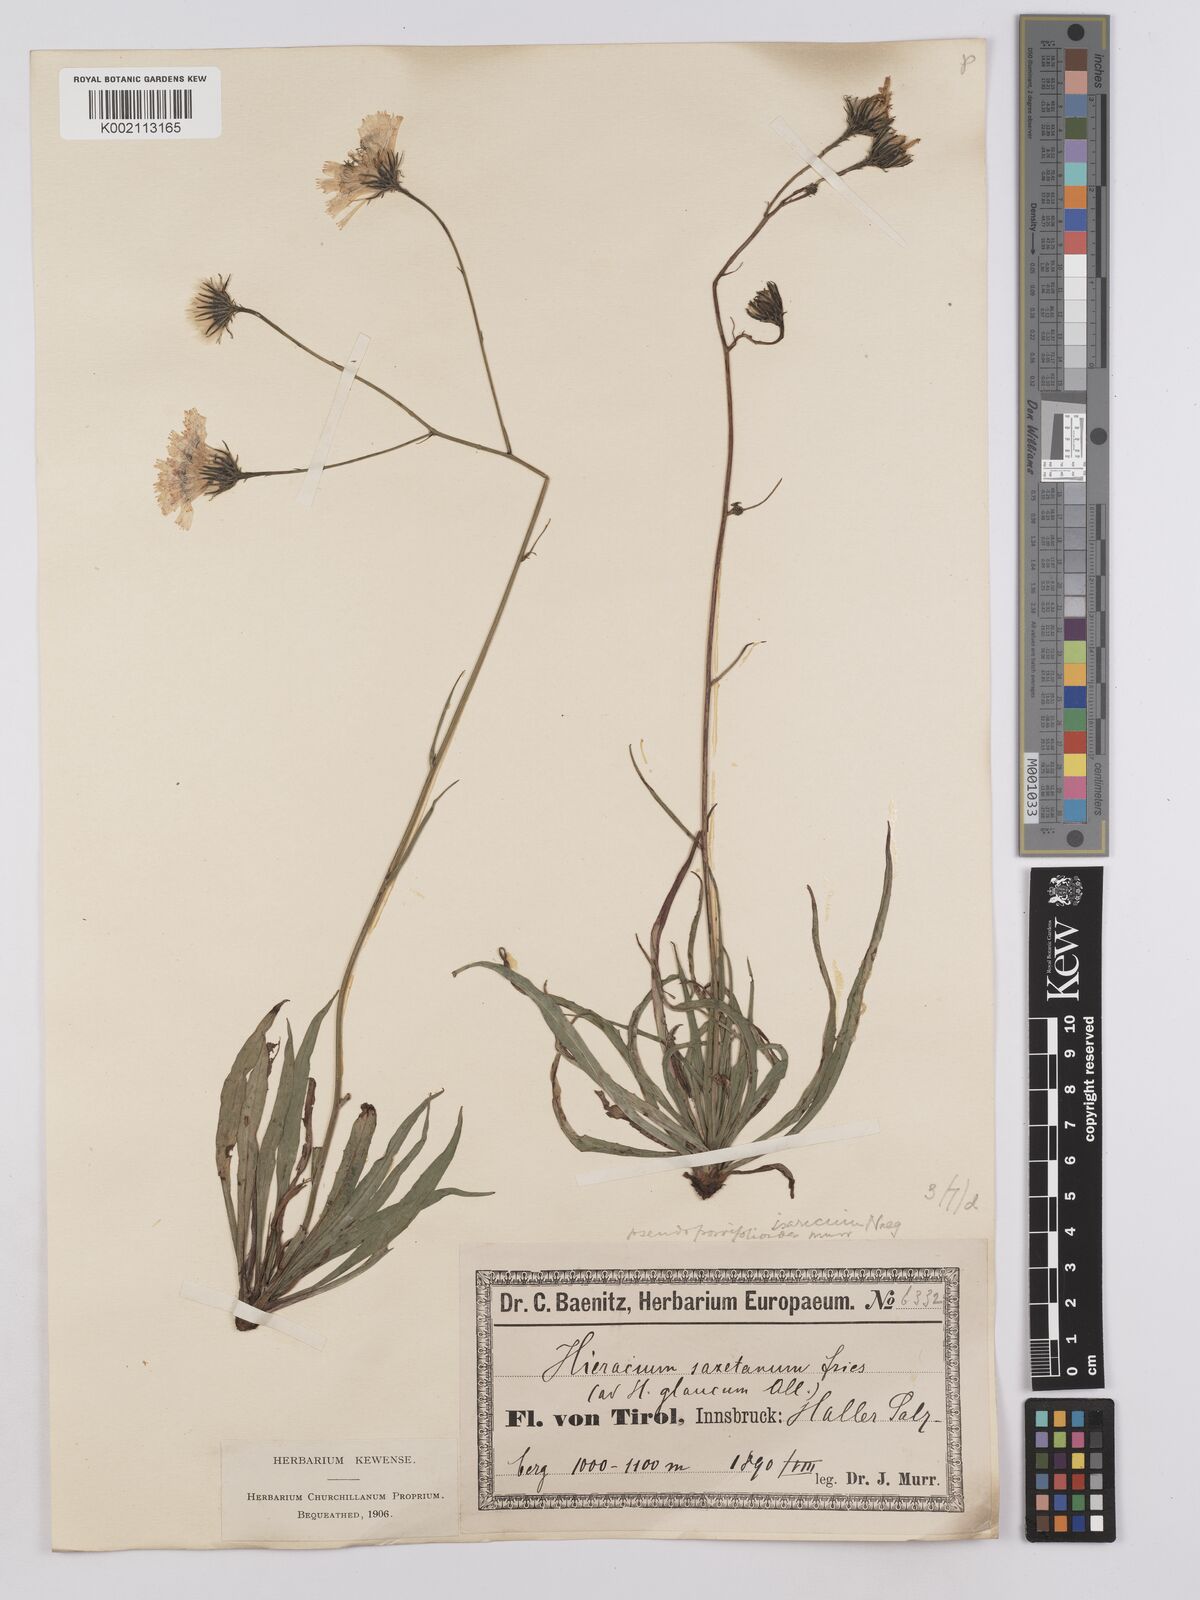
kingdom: Plantae
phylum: Tracheophyta
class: Magnoliopsida
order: Asterales
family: Asteraceae
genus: Hieracium
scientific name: Hieracium glaucum
